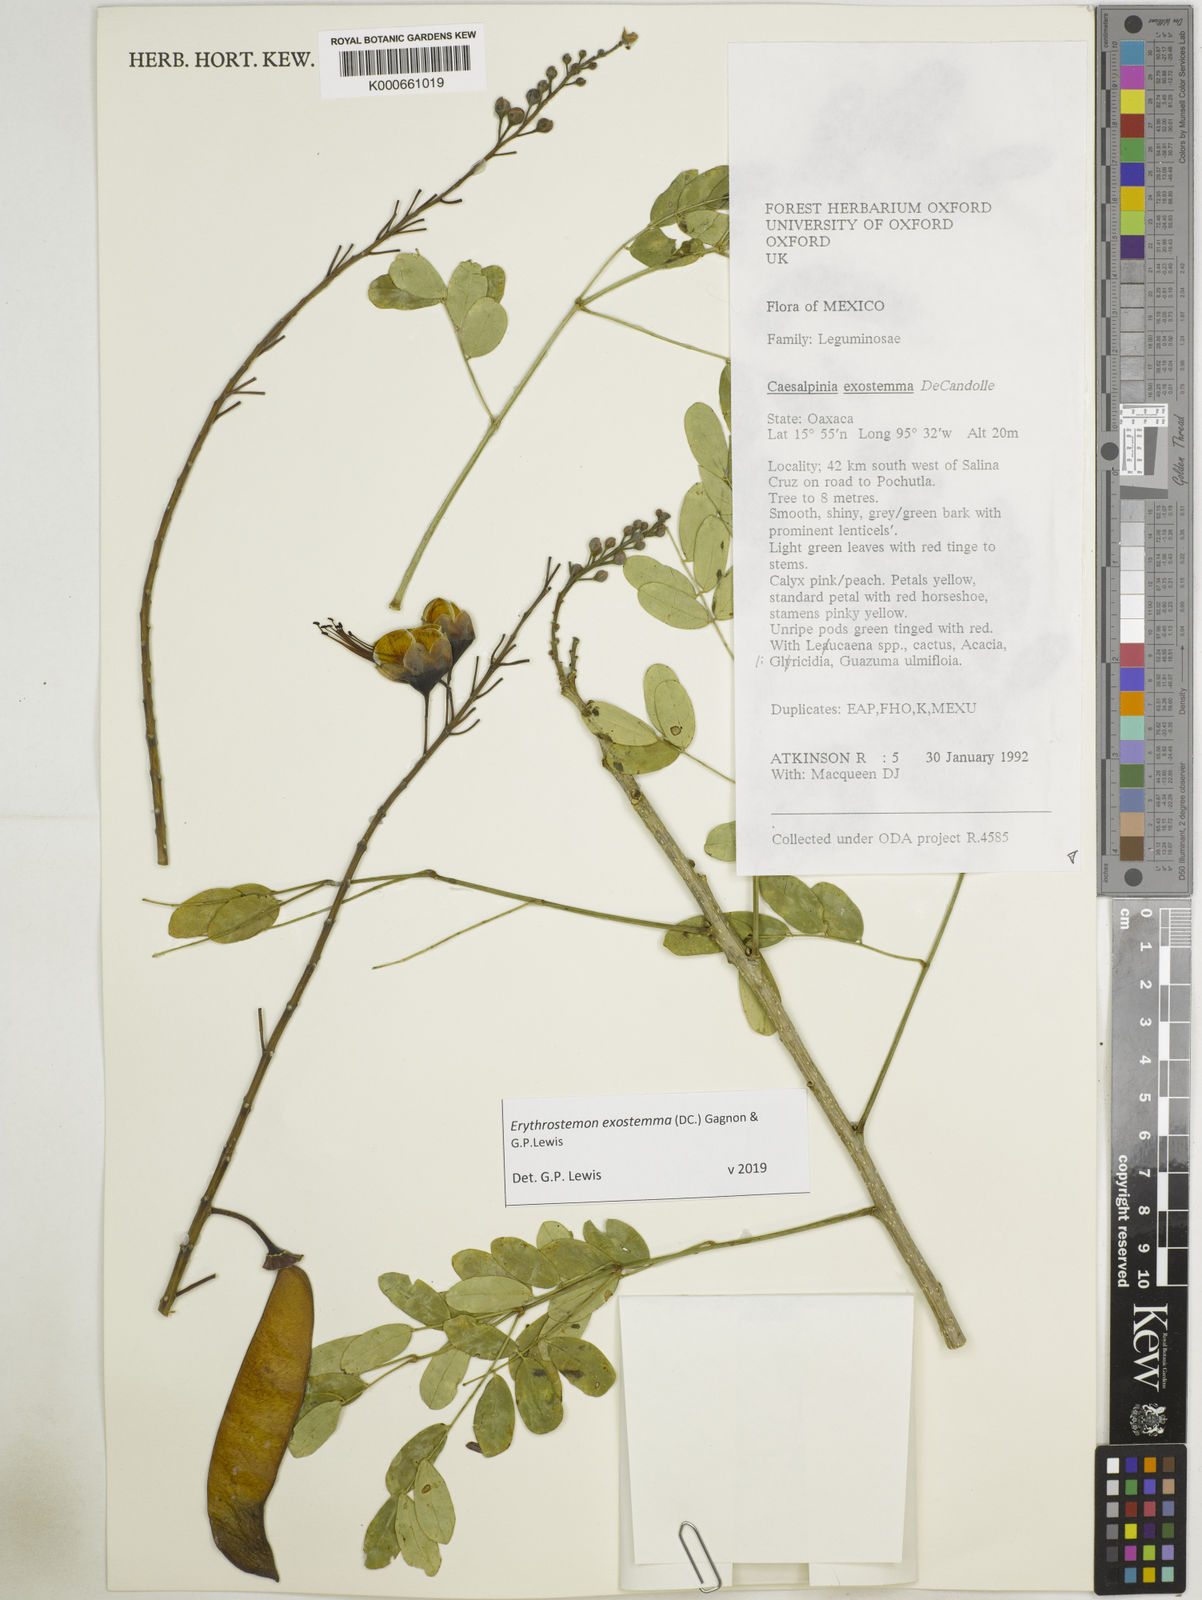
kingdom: Plantae
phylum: Tracheophyta
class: Magnoliopsida
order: Fabales
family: Fabaceae
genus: Erythrostemon
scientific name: Erythrostemon exostemma
